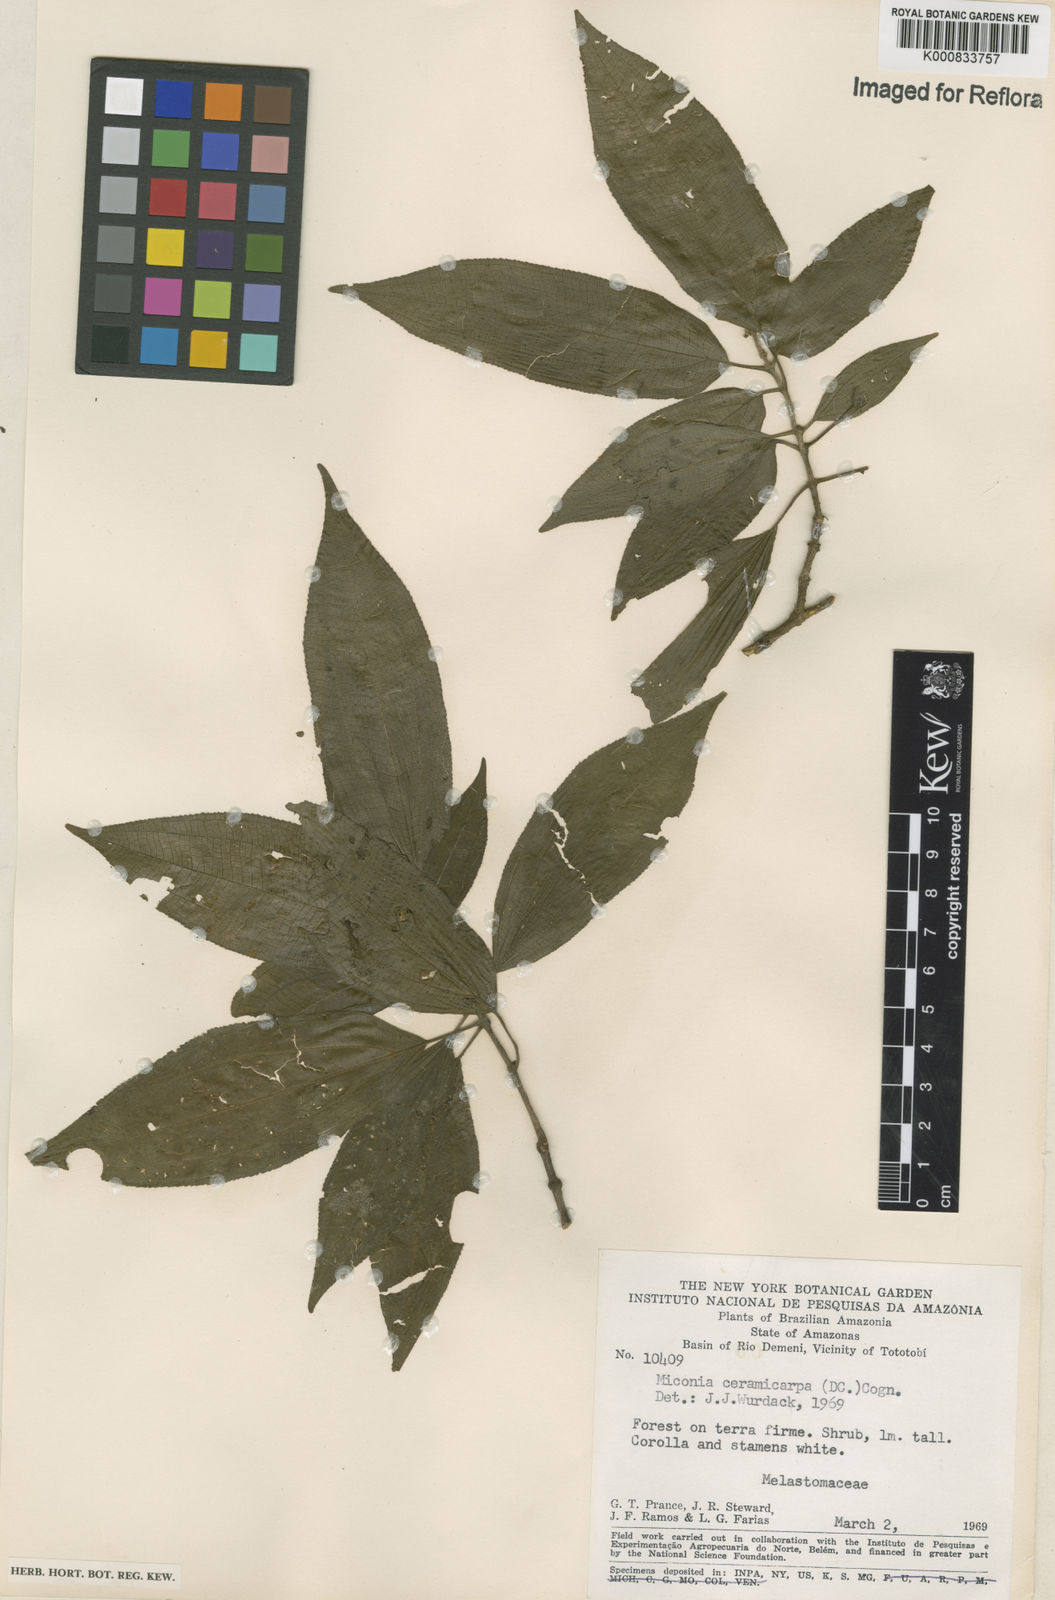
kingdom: Plantae
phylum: Tracheophyta
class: Magnoliopsida
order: Myrtales
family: Melastomataceae
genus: Miconia
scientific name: Miconia ceramicarpa
